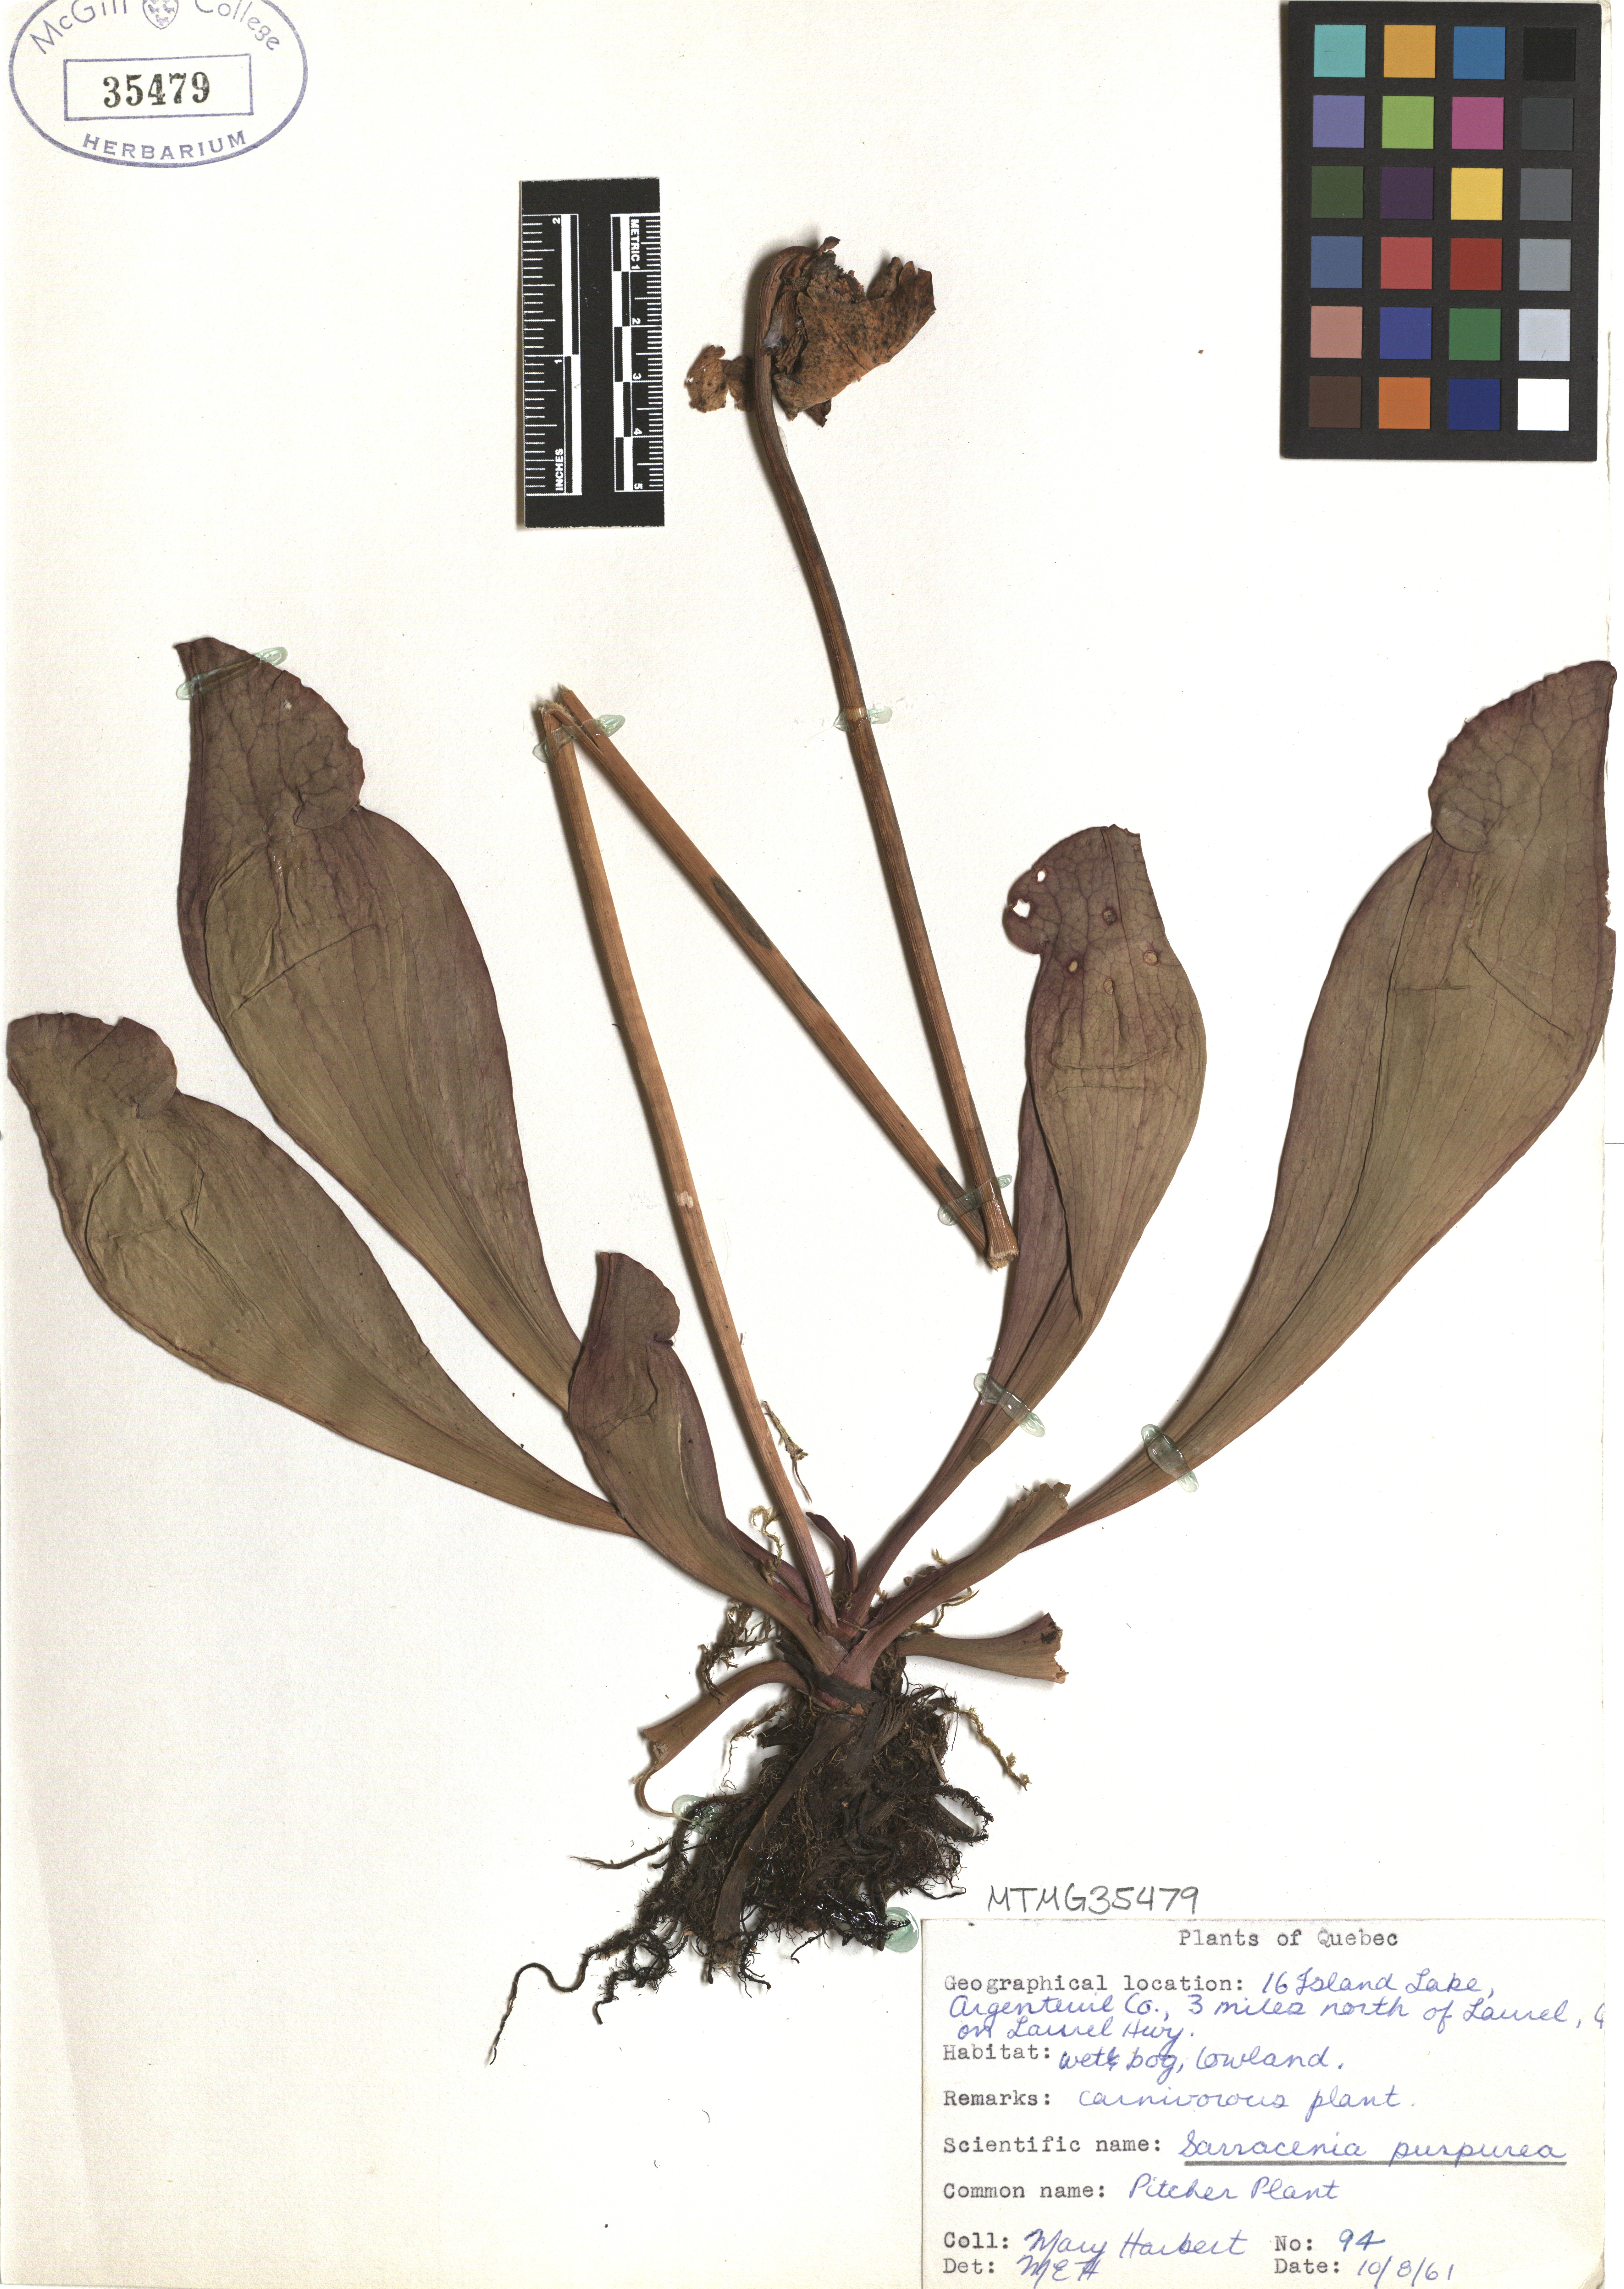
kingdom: Plantae
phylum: Tracheophyta
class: Magnoliopsida
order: Ericales
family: Sarraceniaceae
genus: Sarracenia
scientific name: Sarracenia purpurea
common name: Pitcherplant
